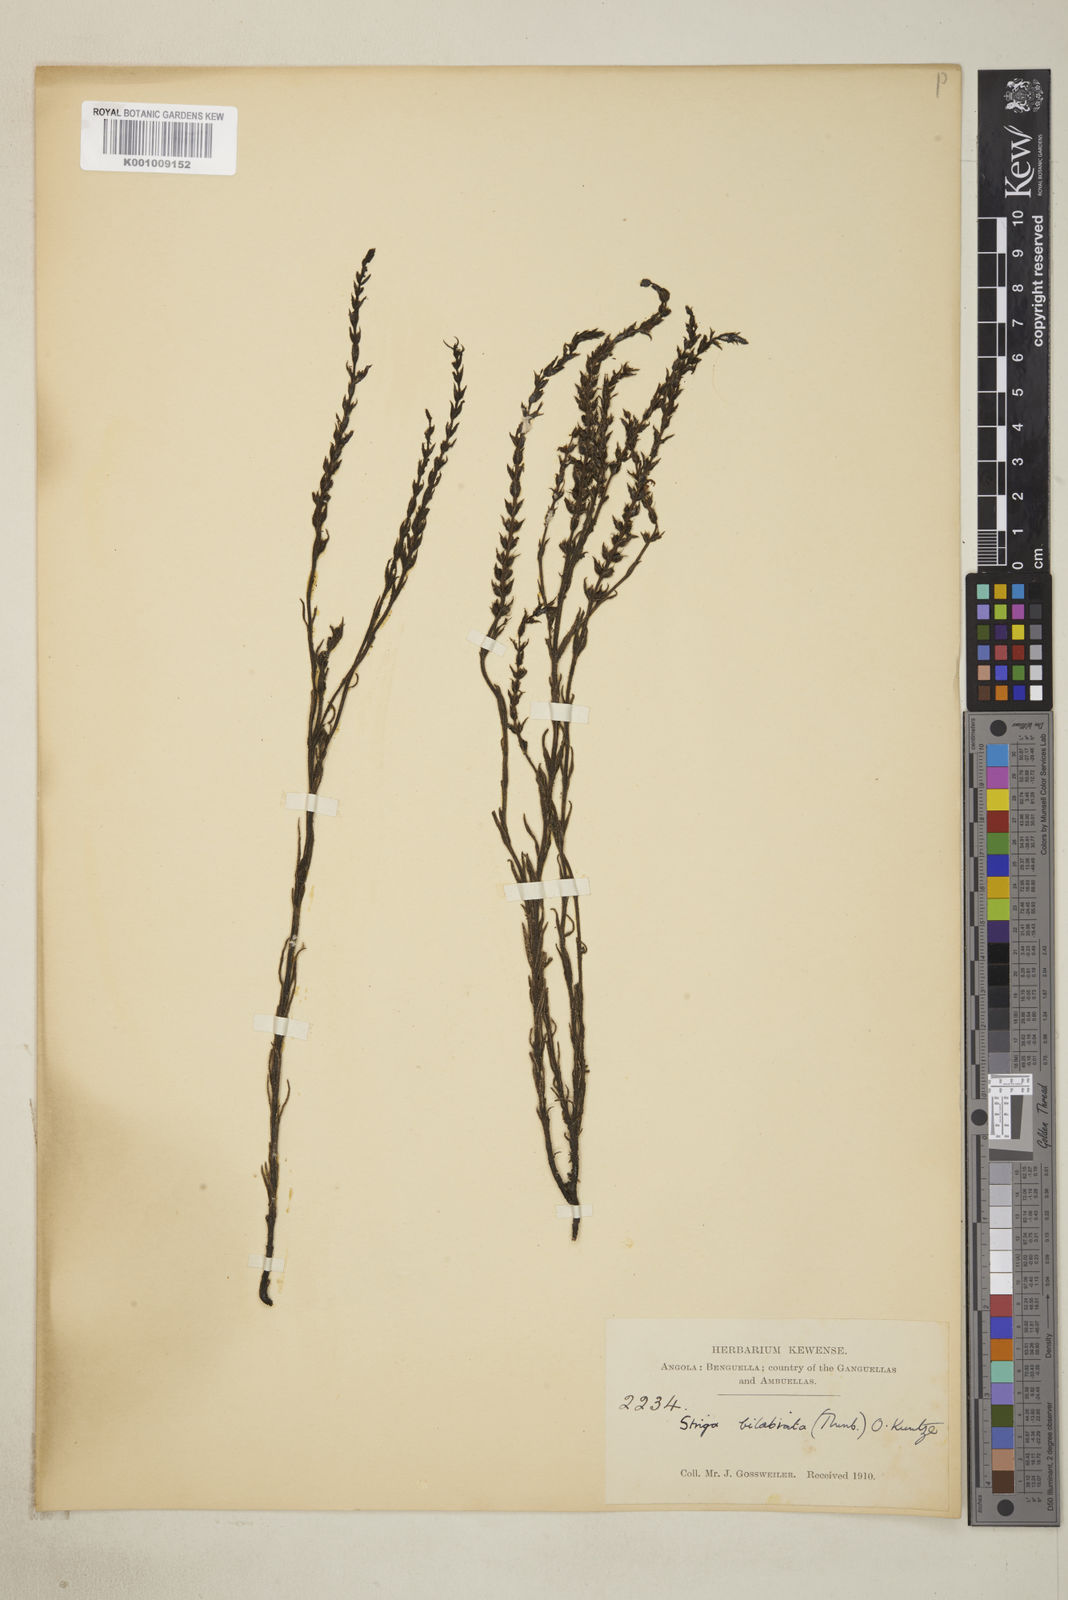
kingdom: Plantae
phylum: Tracheophyta
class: Magnoliopsida
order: Lamiales
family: Orobanchaceae
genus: Striga
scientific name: Striga bilabiata
